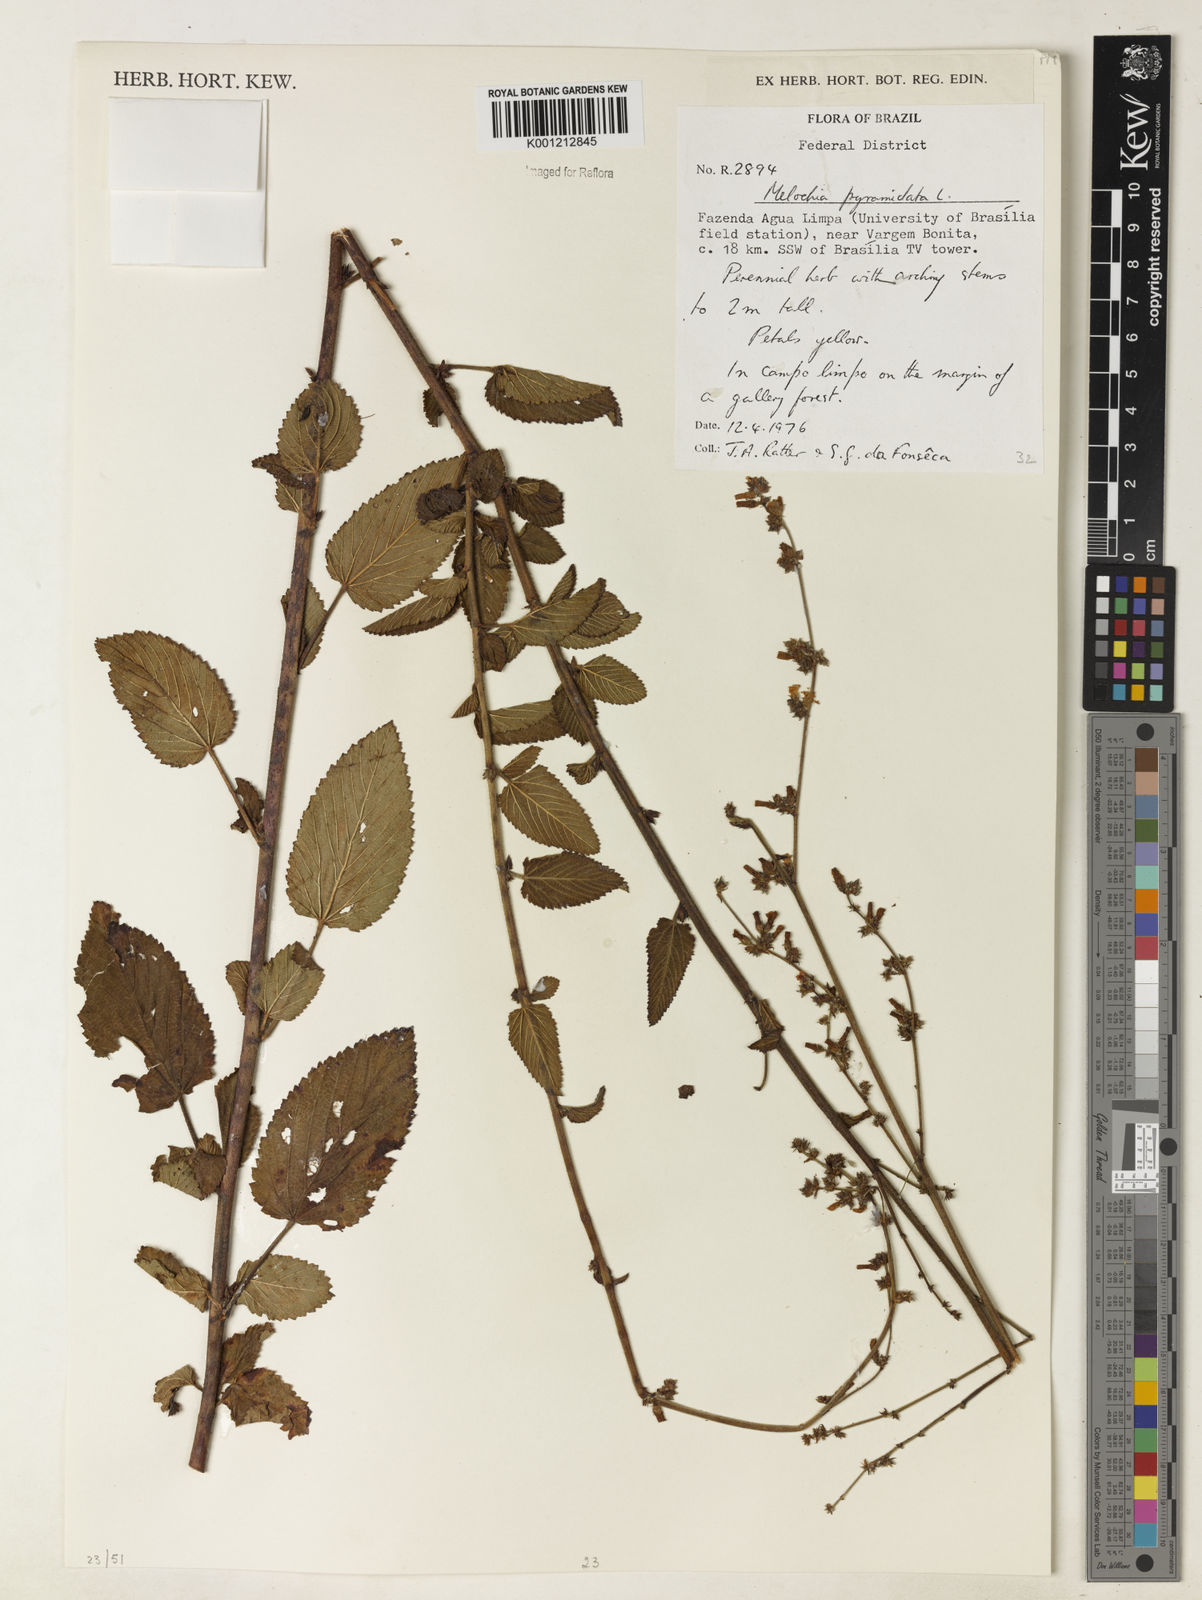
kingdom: Plantae
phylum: Tracheophyta
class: Magnoliopsida
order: Malvales
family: Malvaceae
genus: Melochia
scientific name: Melochia pyramidata
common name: Pyramidflower
